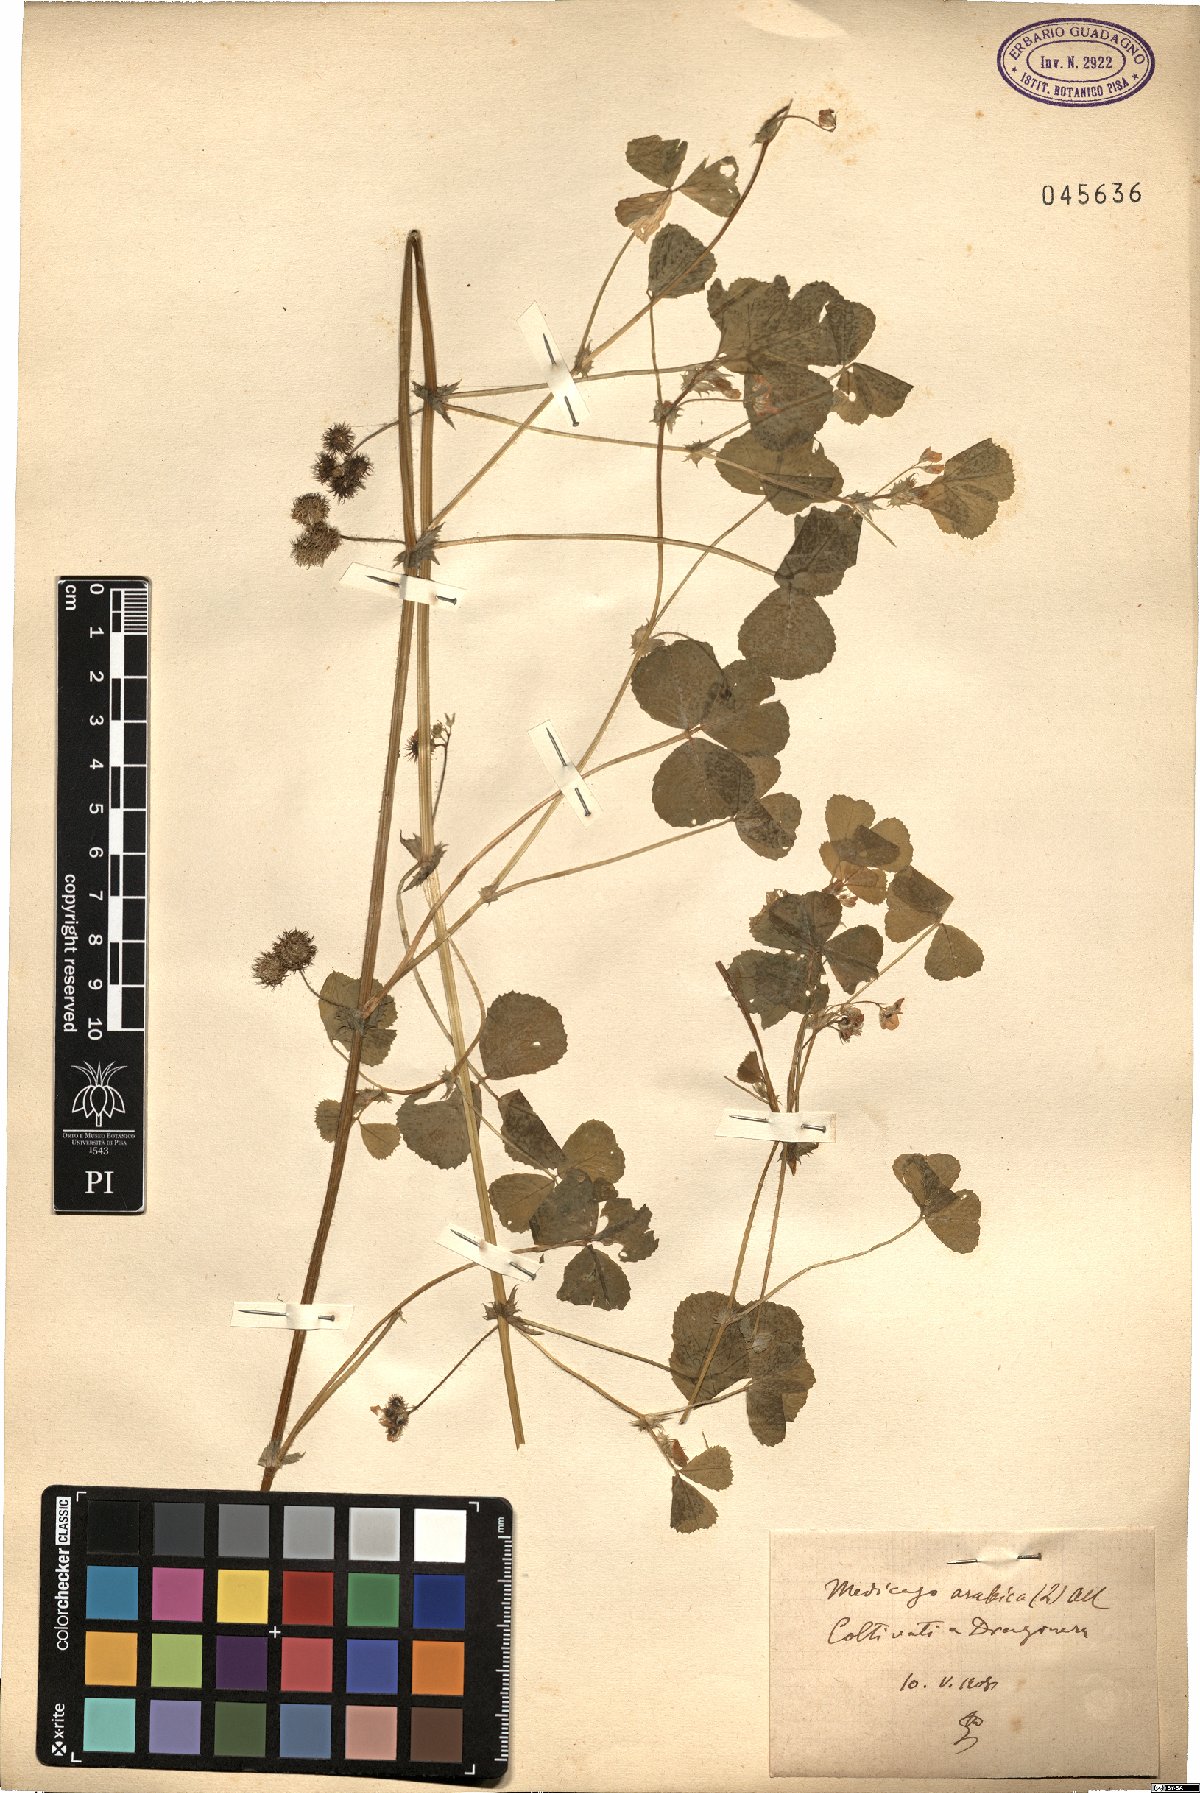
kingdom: Plantae
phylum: Tracheophyta
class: Magnoliopsida
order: Fabales
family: Fabaceae
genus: Medicago
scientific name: Medicago arabica
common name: Spotted medick
